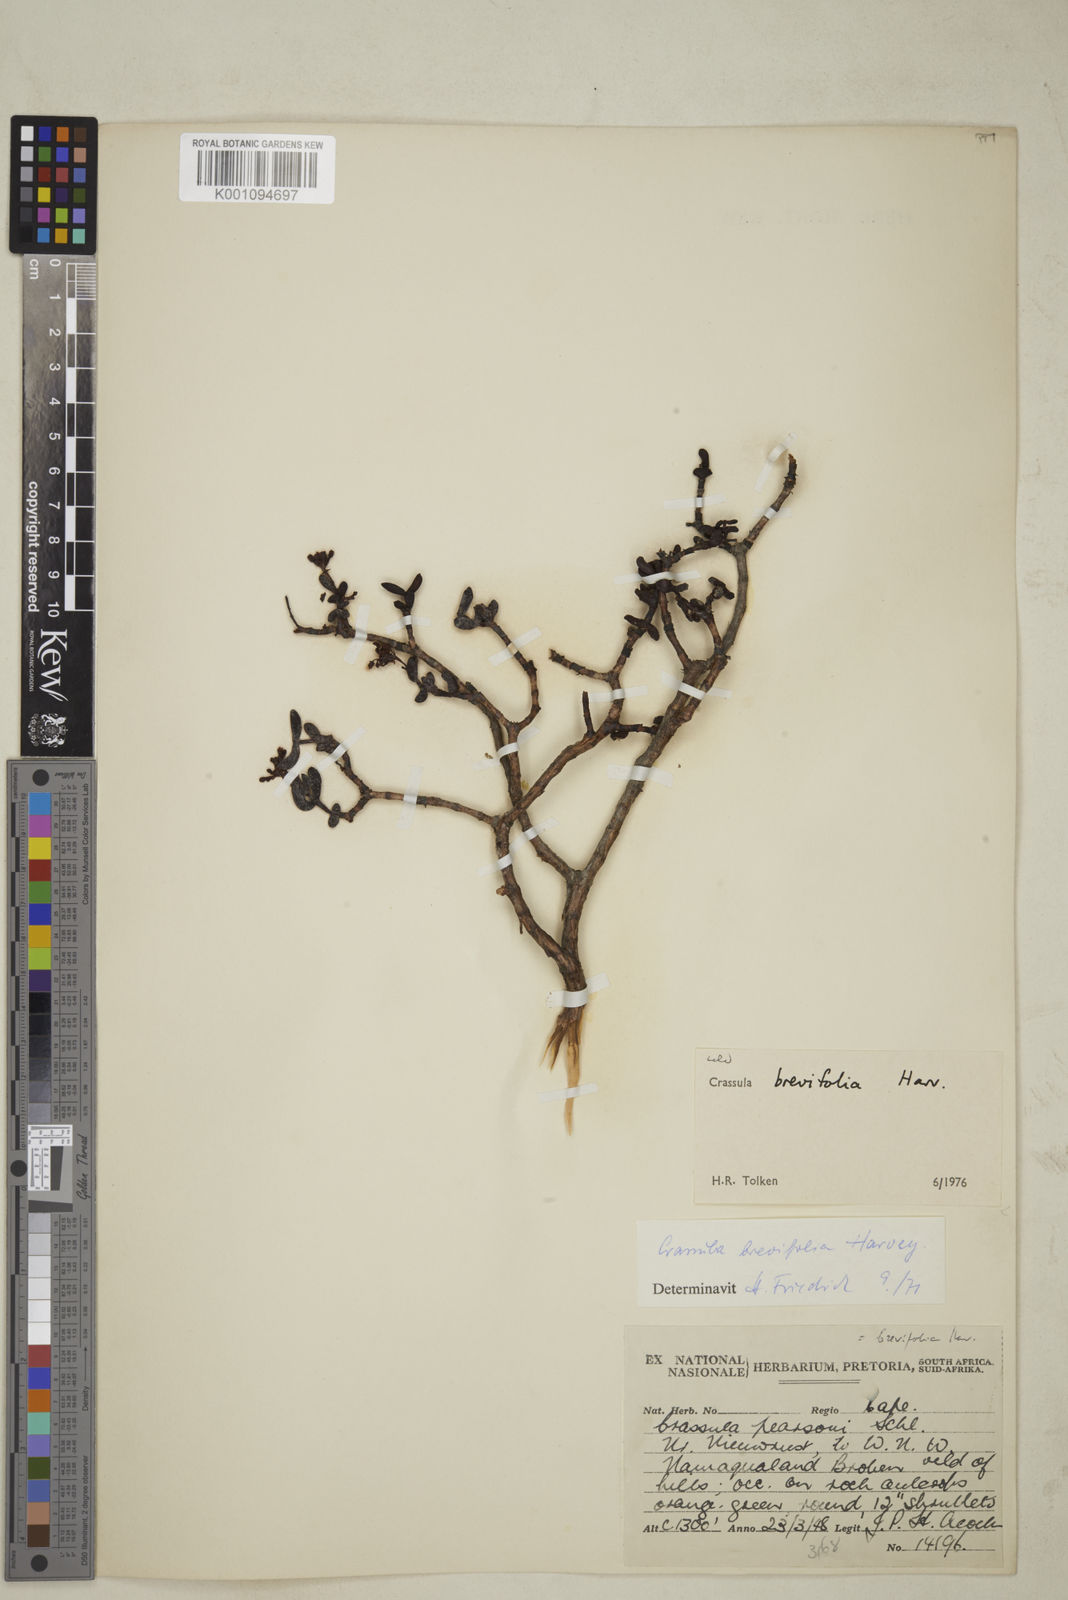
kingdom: Plantae
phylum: Tracheophyta
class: Magnoliopsida
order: Saxifragales
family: Crassulaceae
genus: Crassula
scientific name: Crassula brevifolia
